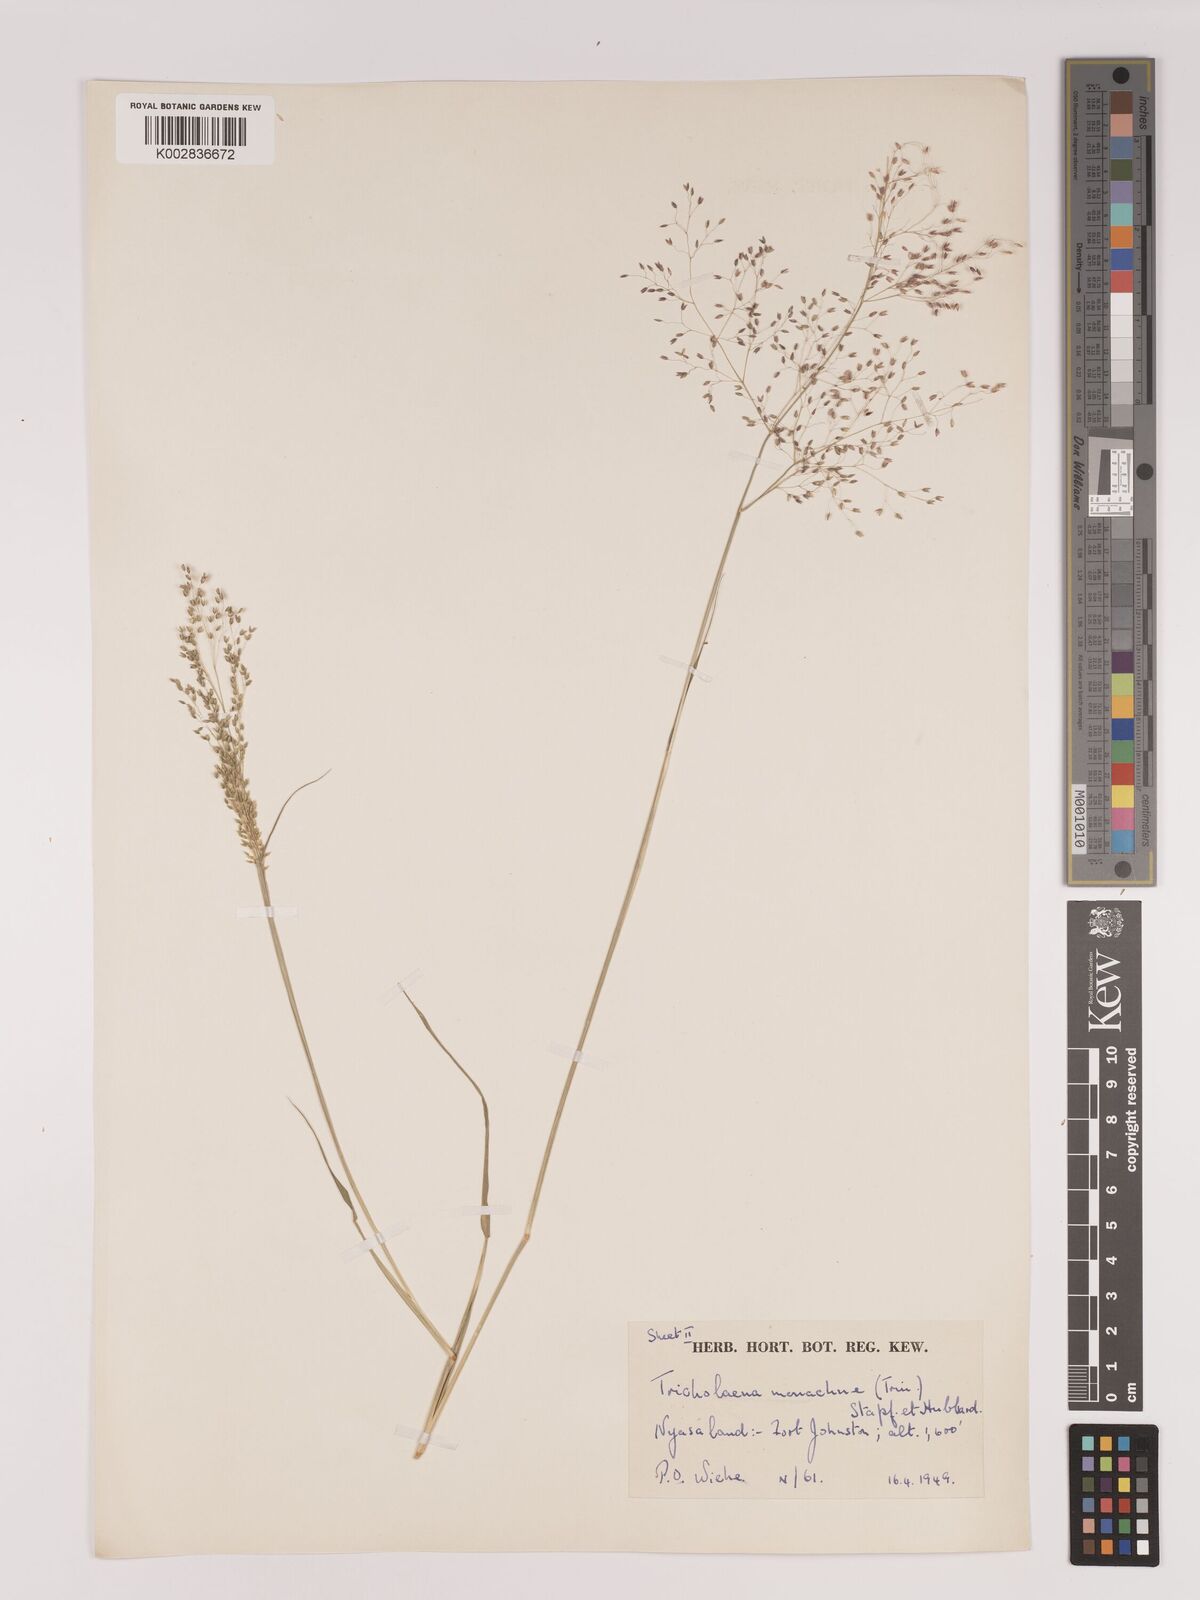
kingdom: Plantae
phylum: Tracheophyta
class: Liliopsida
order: Poales
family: Poaceae
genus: Tricholaena
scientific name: Tricholaena monachne
